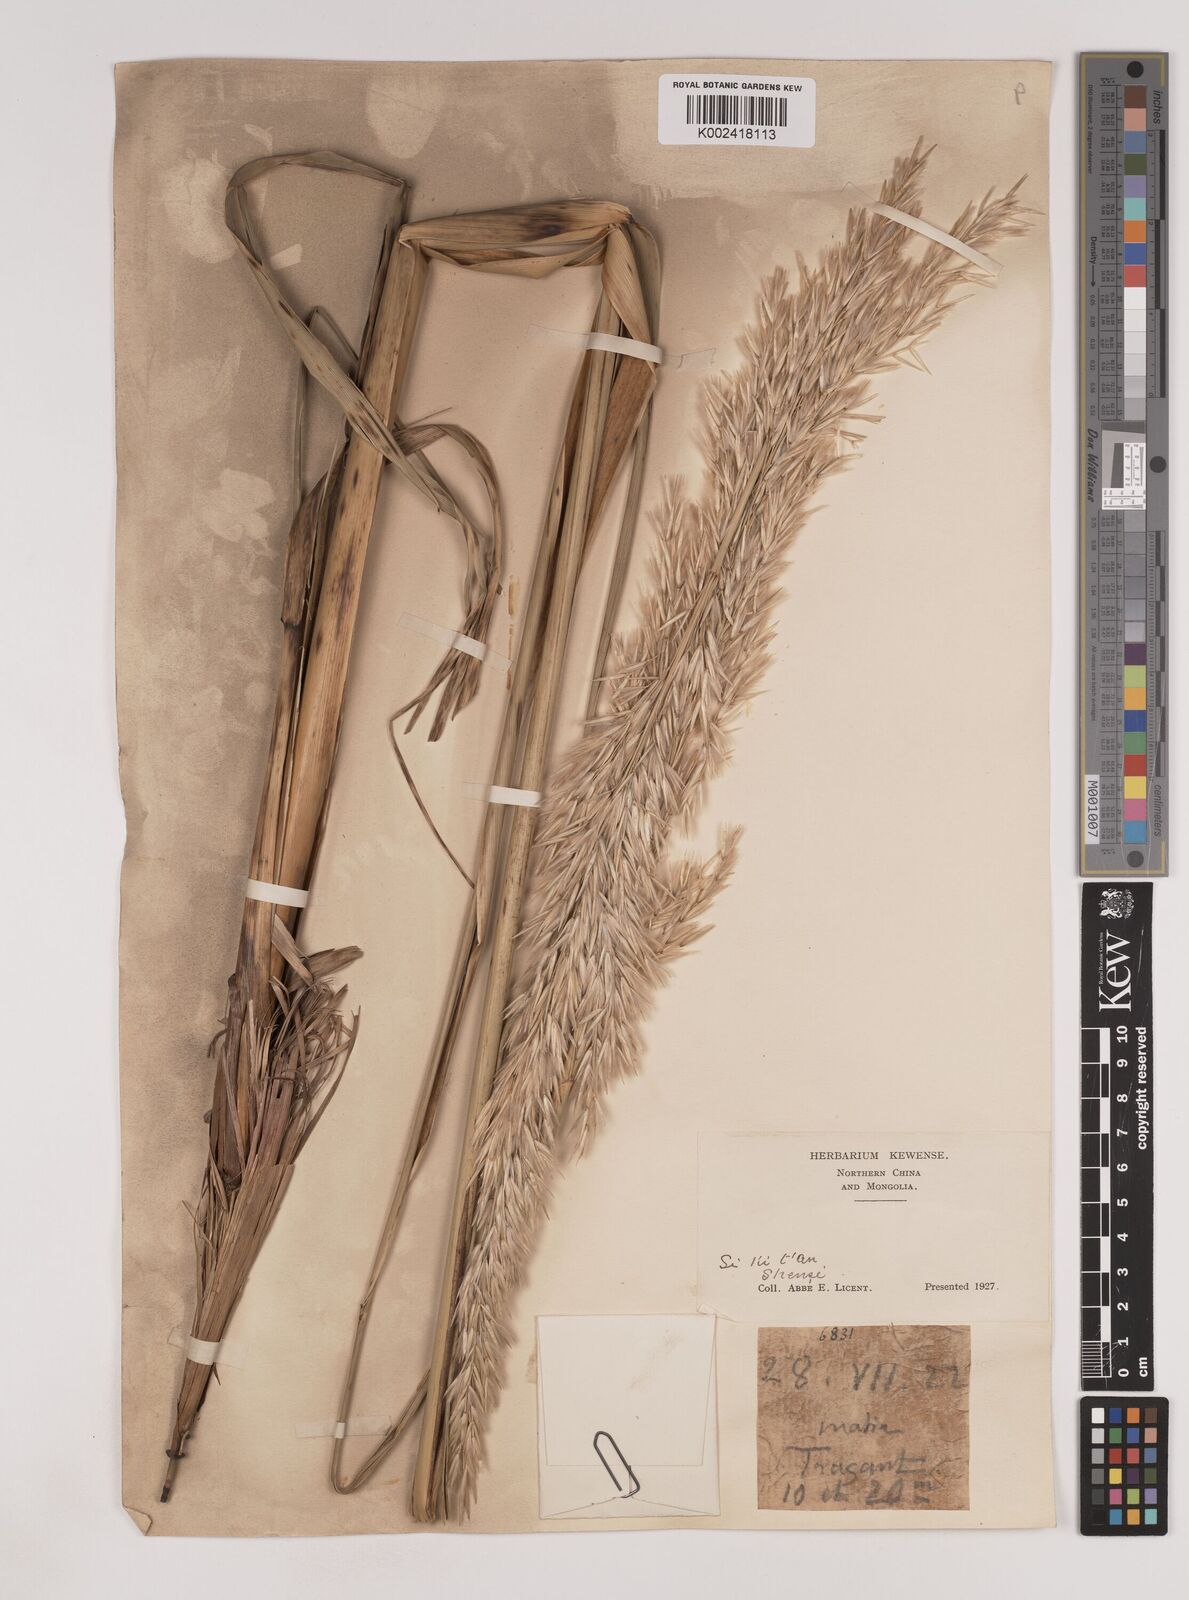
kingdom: Plantae
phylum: Tracheophyta
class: Liliopsida
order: Poales
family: Poaceae
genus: Psammochloa
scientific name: Psammochloa villosa
